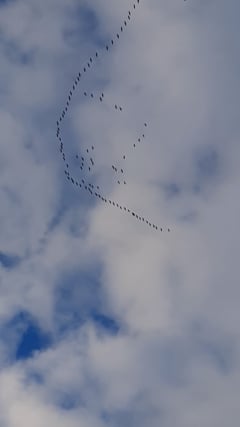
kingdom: Animalia
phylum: Chordata
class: Aves
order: Gruiformes
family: Gruidae
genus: Grus
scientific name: Grus grus
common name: Common crane
